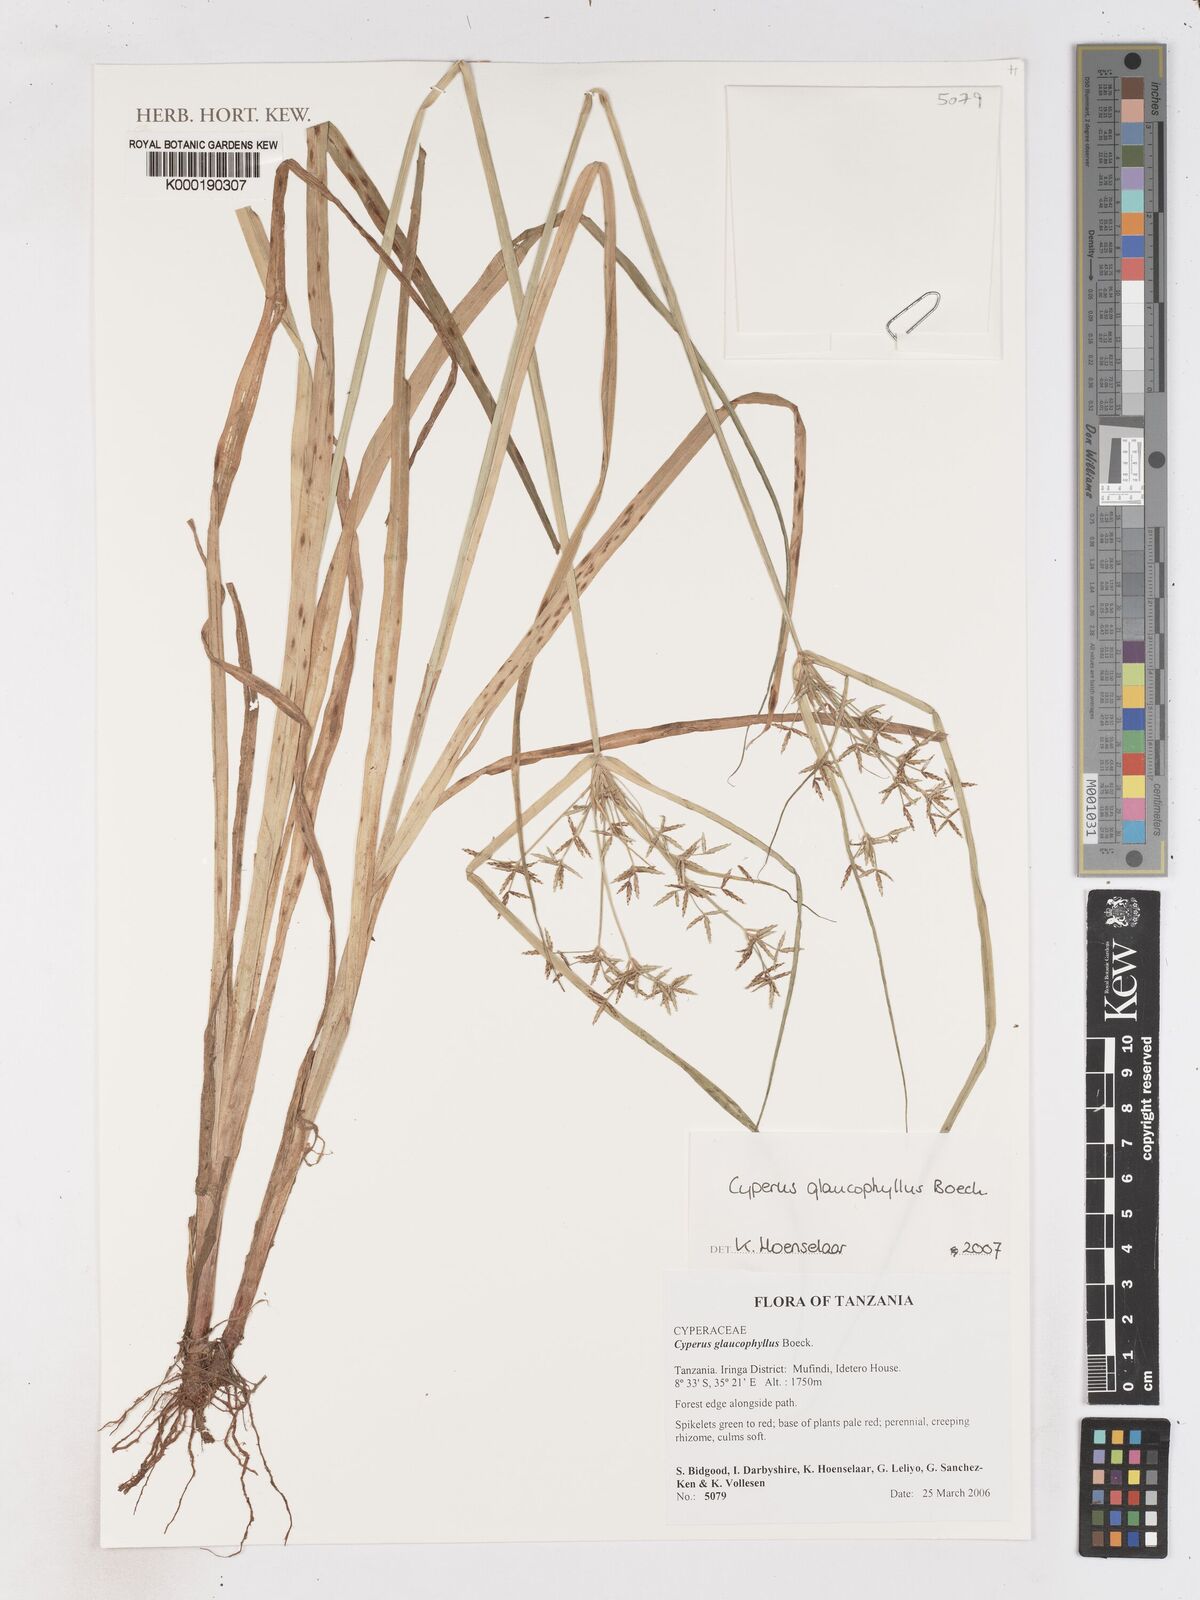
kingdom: Plantae
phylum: Tracheophyta
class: Liliopsida
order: Poales
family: Cyperaceae
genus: Cyperus
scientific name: Cyperus glaucophyllus
